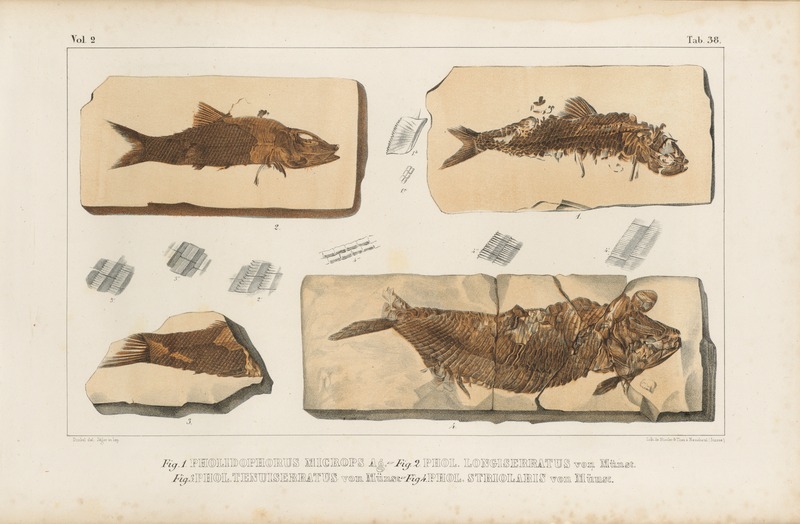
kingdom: Animalia
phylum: Chordata
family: Ankylophoridae
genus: Siemensichthys
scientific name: Siemensichthys macrocephalus
